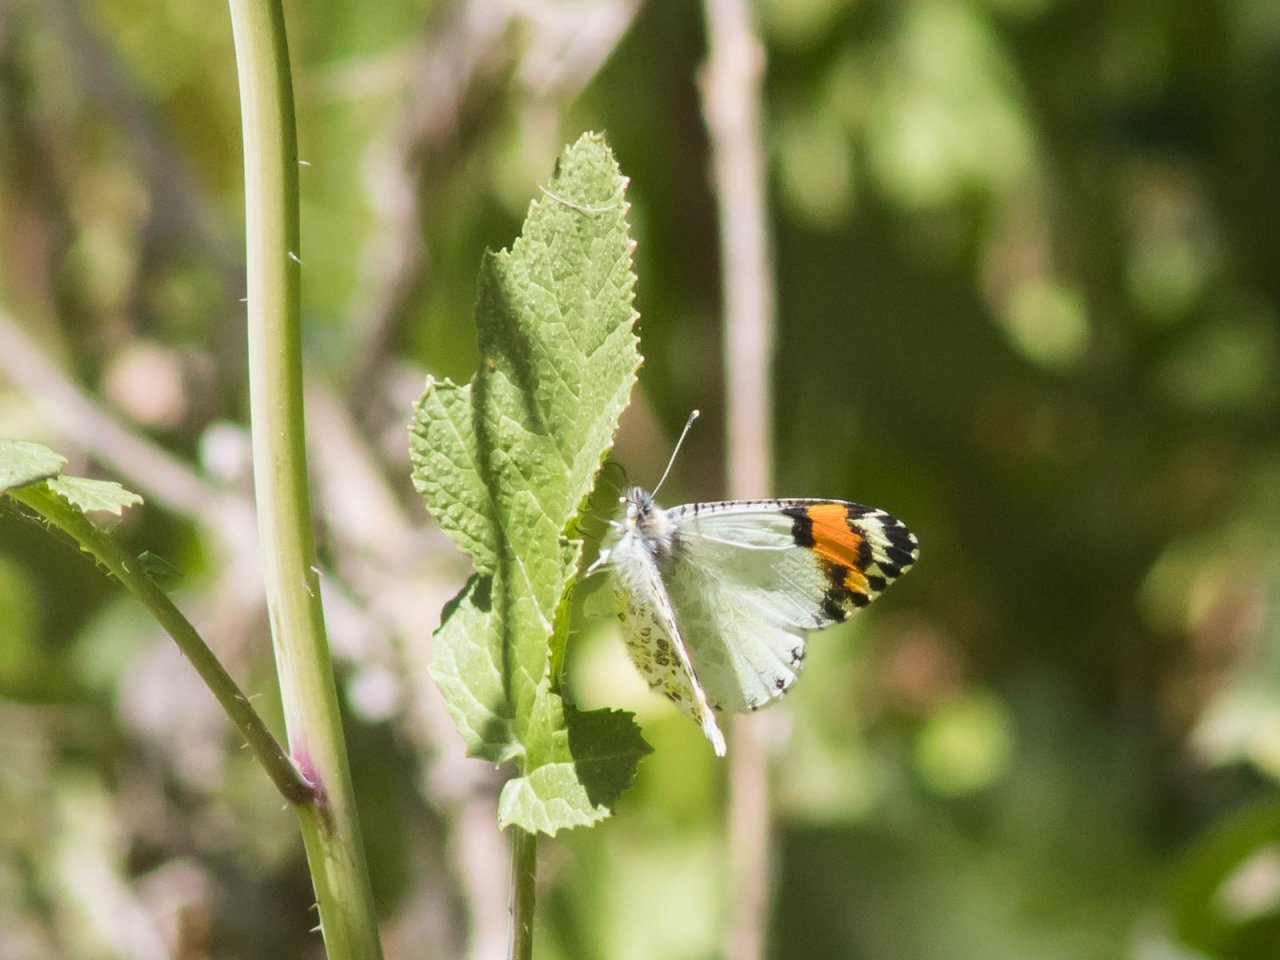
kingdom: Animalia
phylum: Arthropoda
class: Insecta
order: Lepidoptera
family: Pieridae
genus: Anthocharis
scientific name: Anthocharis sara
